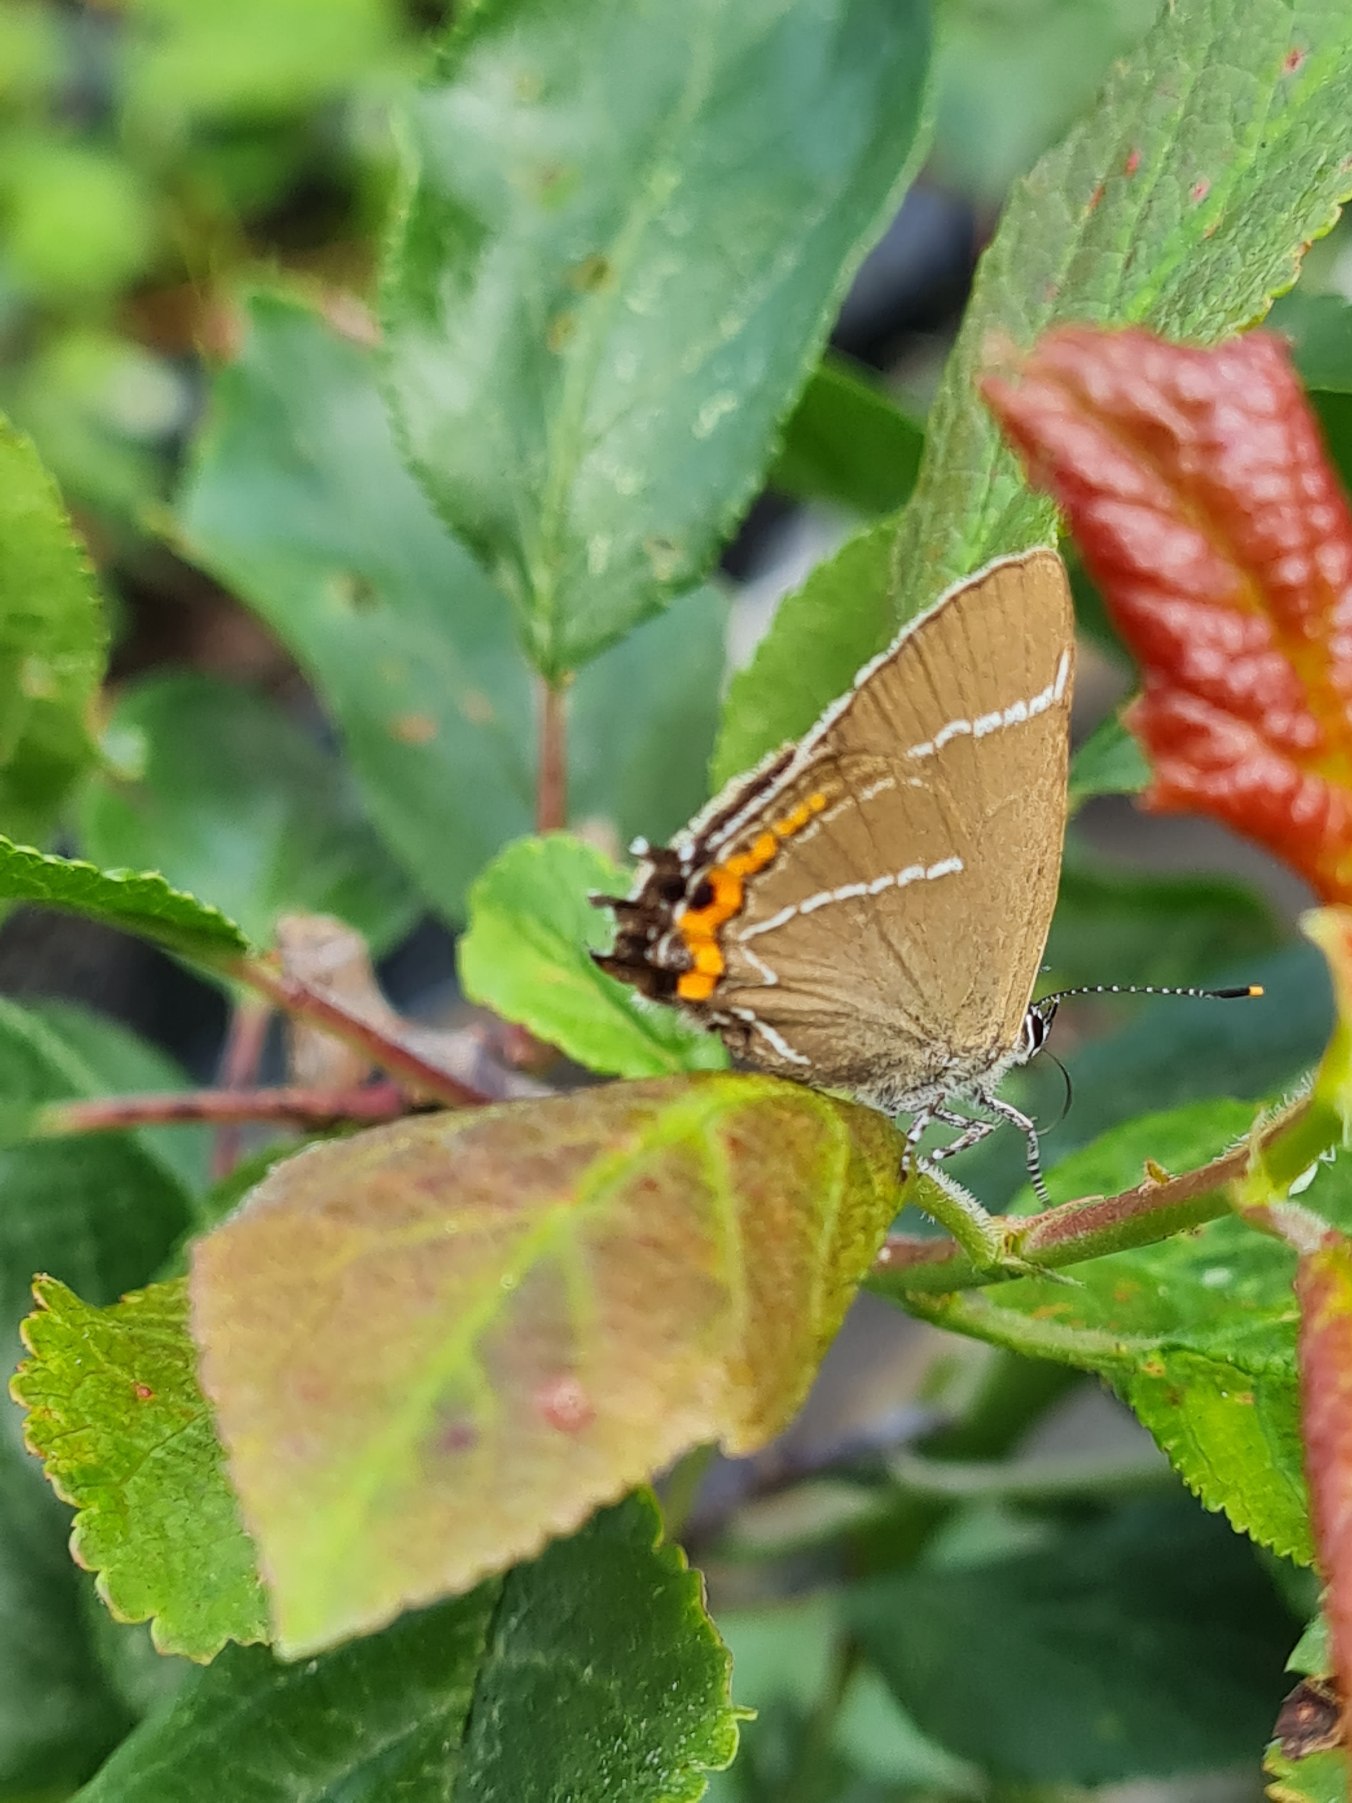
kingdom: Animalia
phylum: Arthropoda
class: Insecta
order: Lepidoptera
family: Lycaenidae
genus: Satyrium
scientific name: Satyrium w-album
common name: Det hvide W
